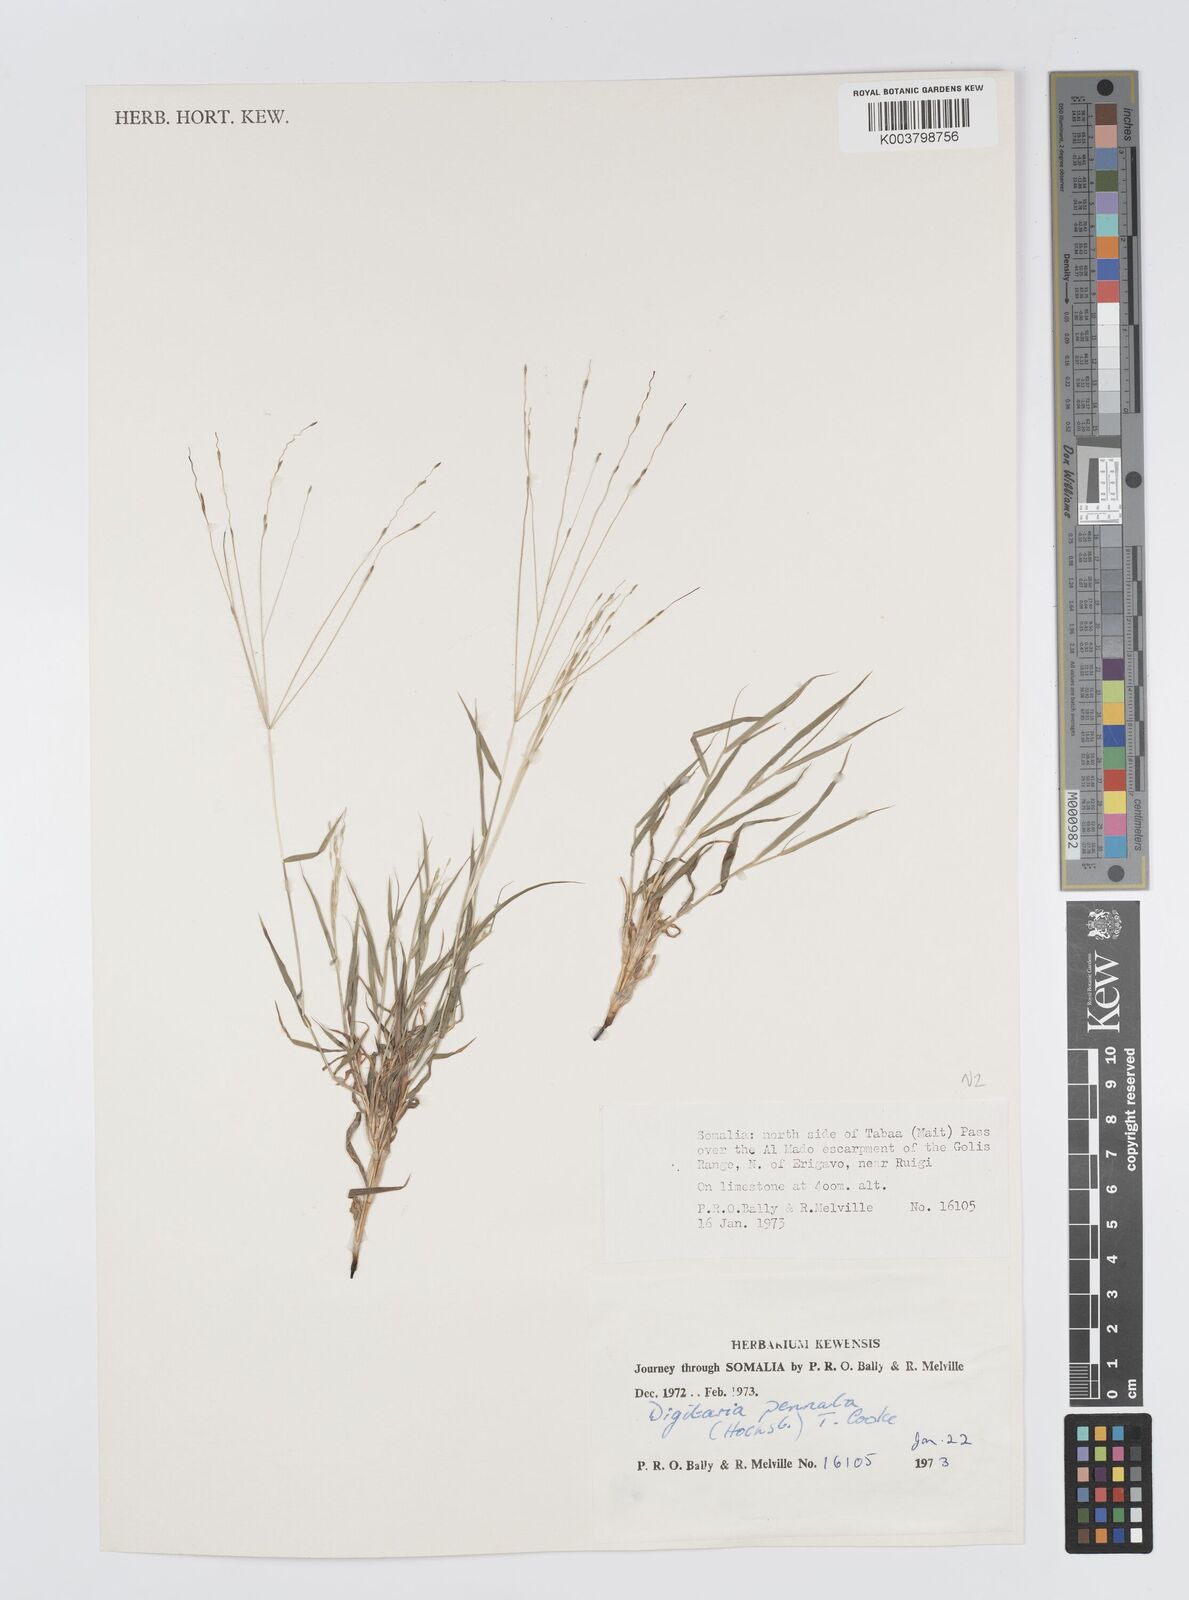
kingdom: Plantae
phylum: Tracheophyta
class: Liliopsida
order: Poales
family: Poaceae
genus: Digitaria
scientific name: Digitaria pennata
